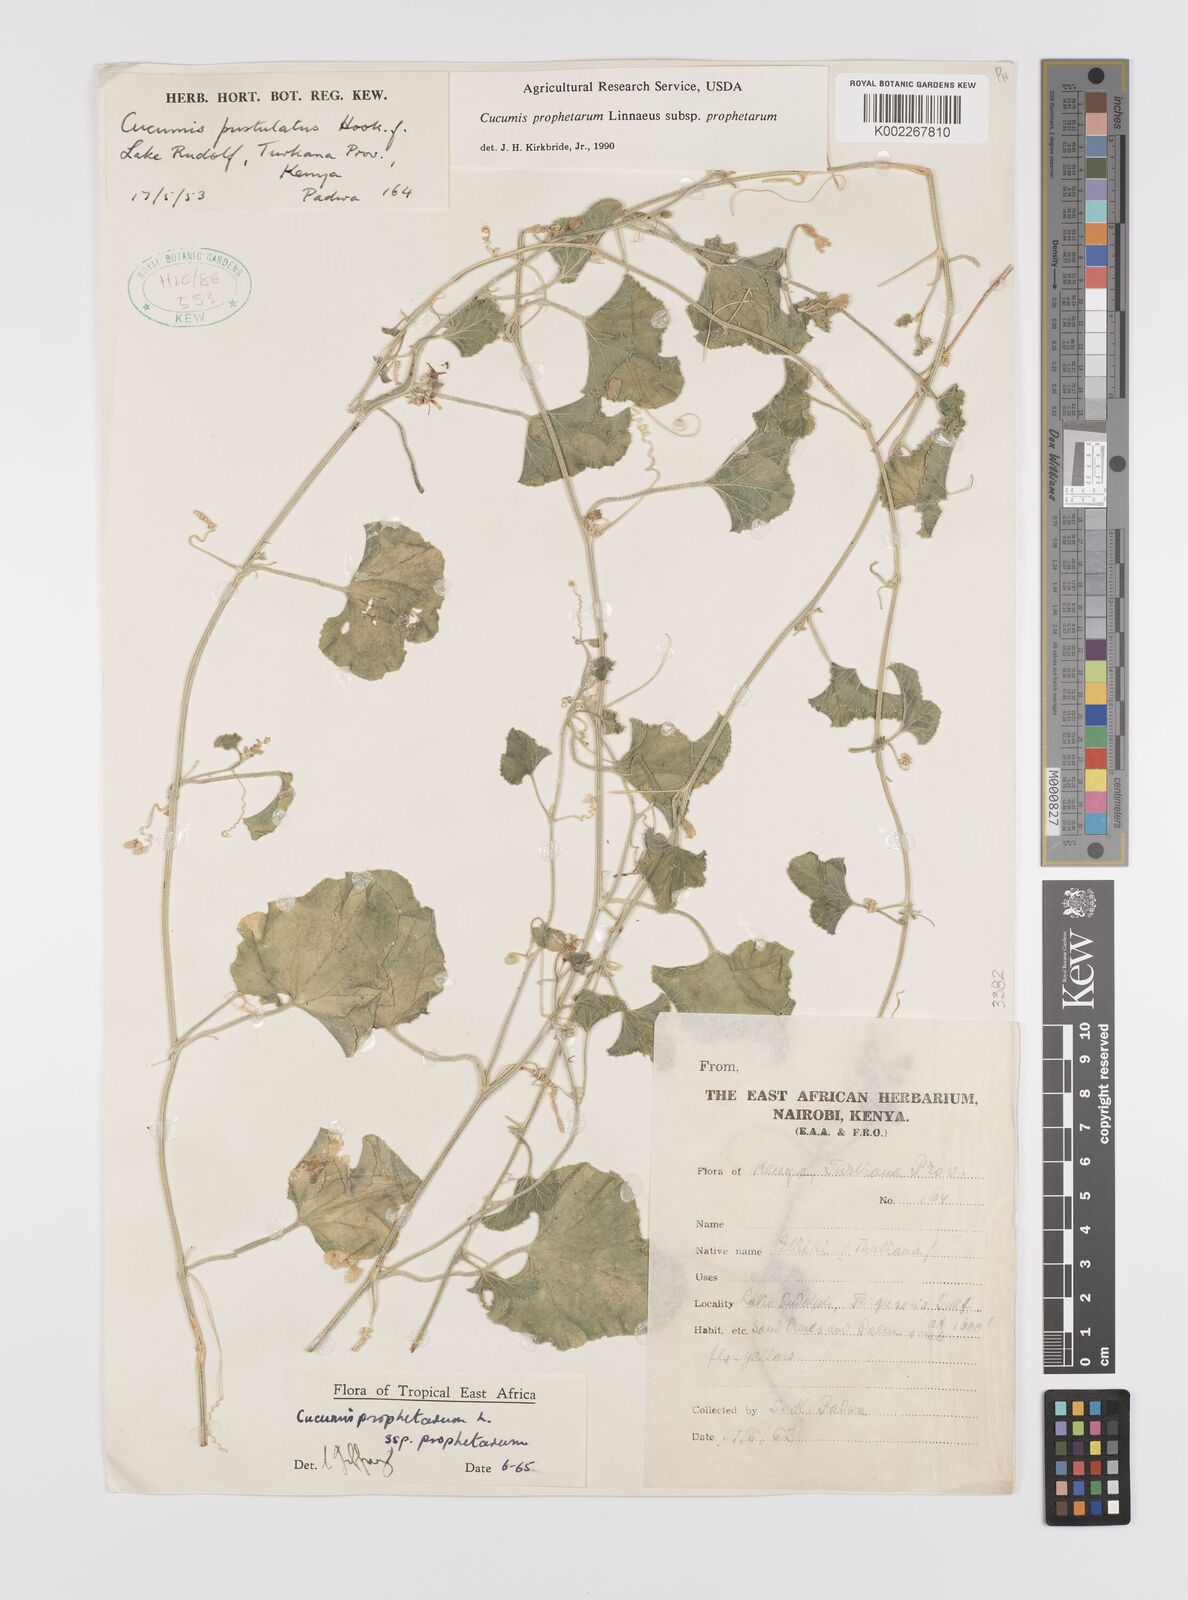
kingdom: Plantae
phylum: Tracheophyta
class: Magnoliopsida
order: Cucurbitales
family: Cucurbitaceae
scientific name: Cucurbitaceae
